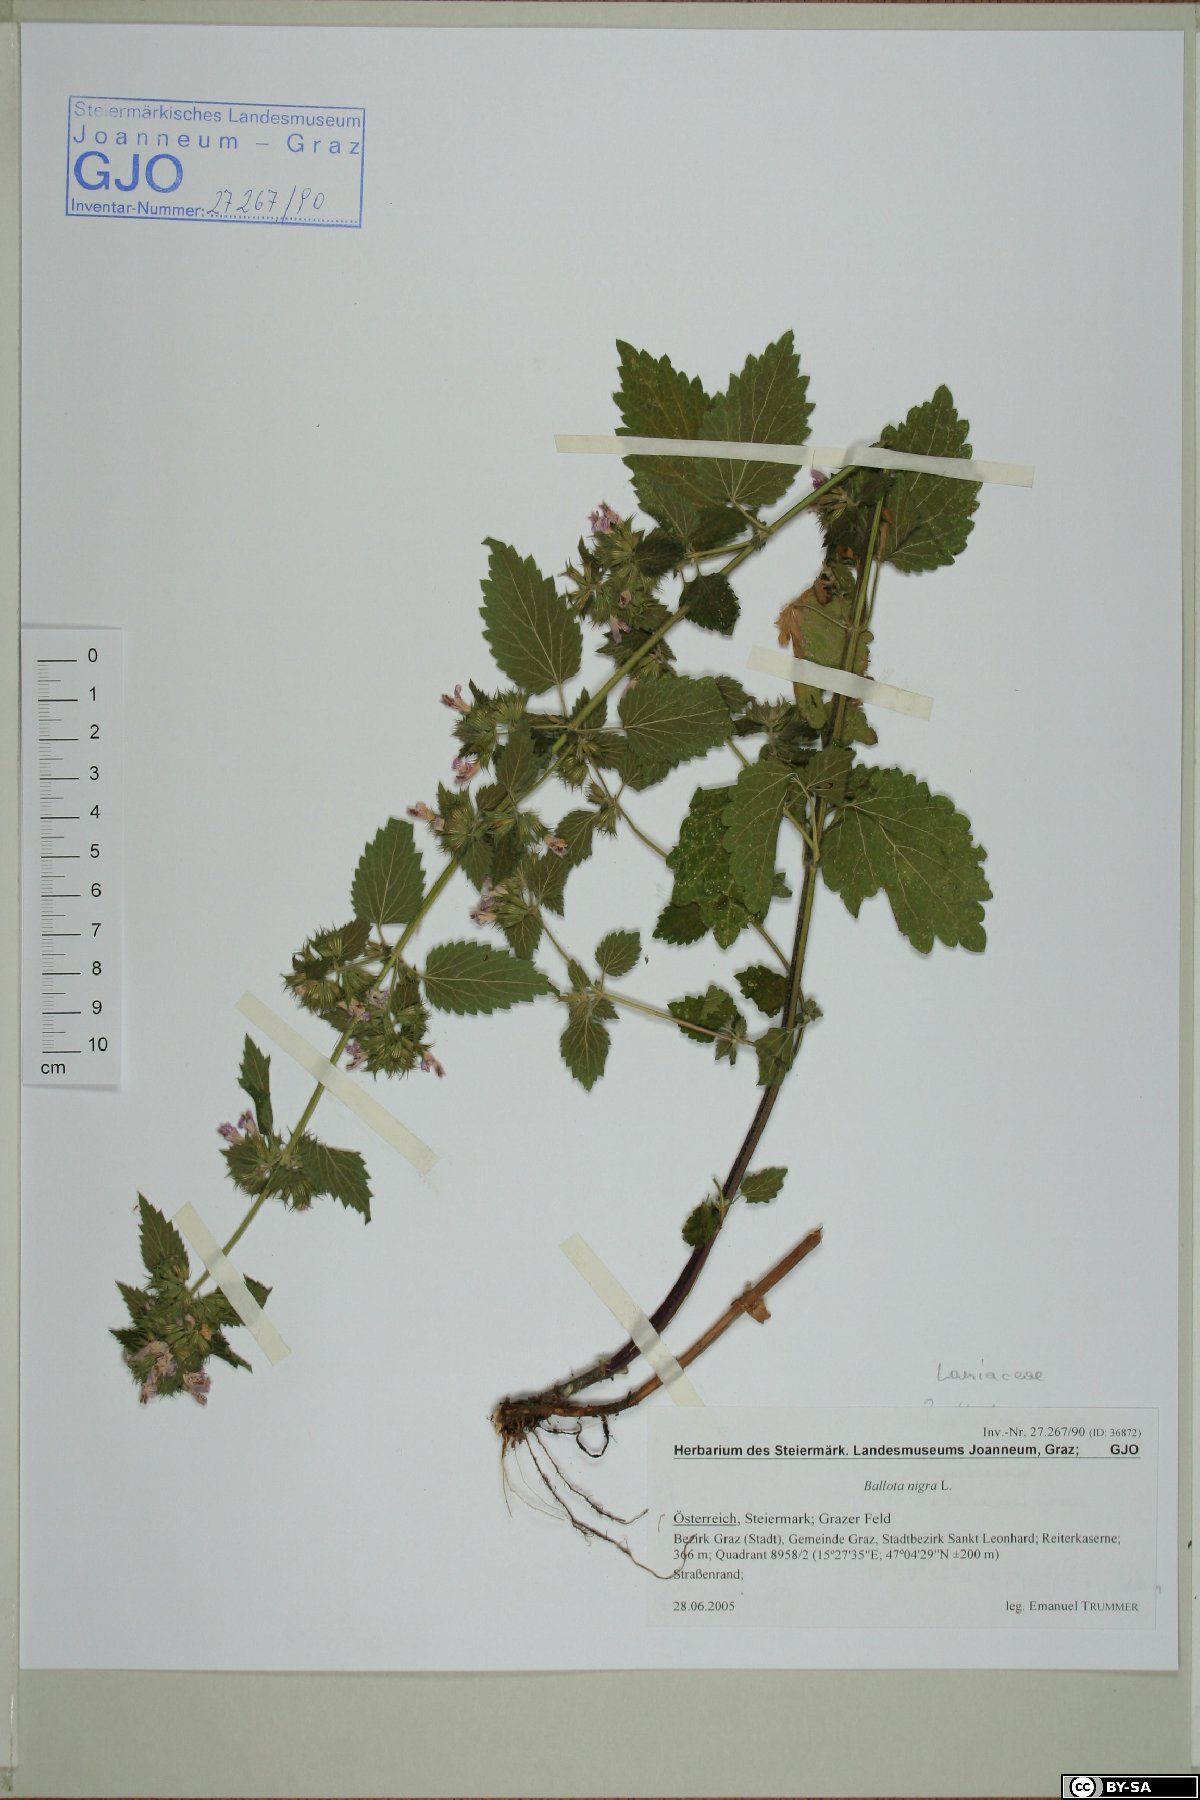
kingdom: Plantae
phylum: Tracheophyta
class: Magnoliopsida
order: Lamiales
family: Lamiaceae
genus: Ballota
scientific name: Ballota nigra
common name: Black horehound
